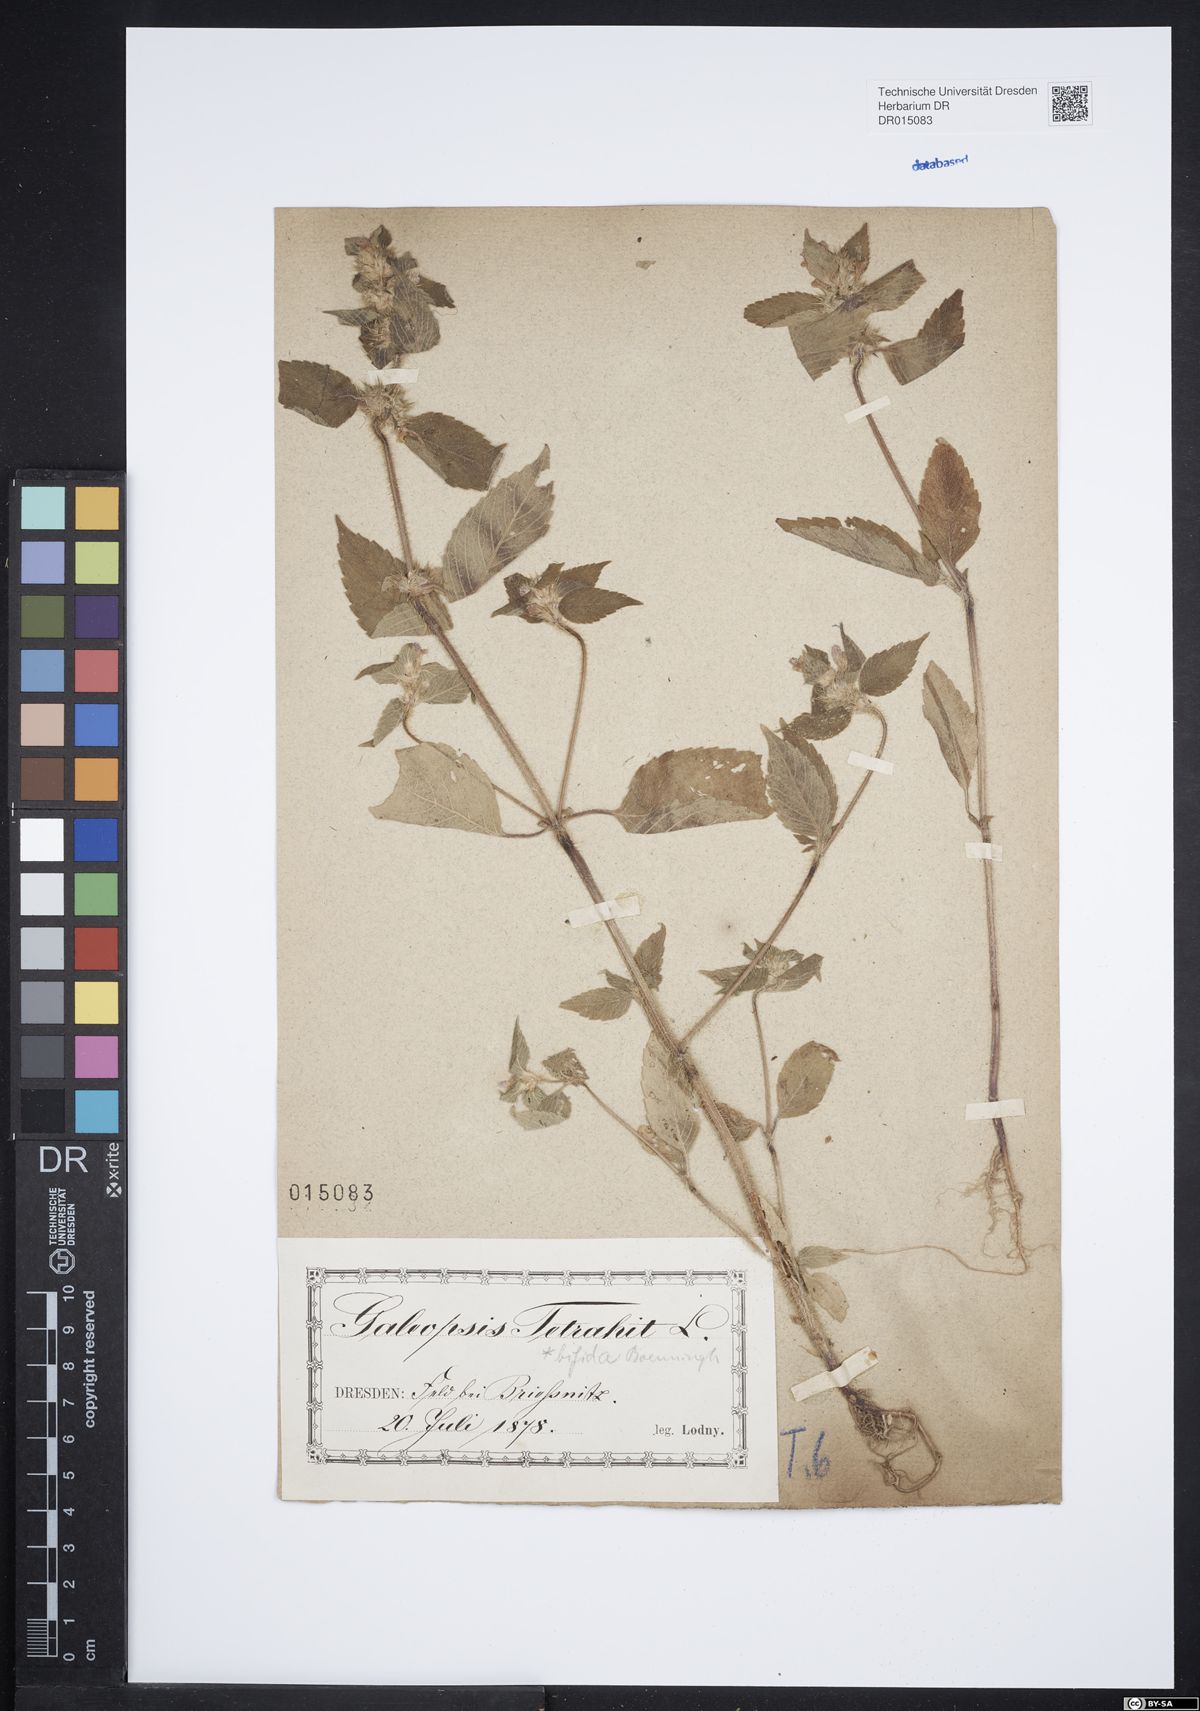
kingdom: Plantae
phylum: Tracheophyta
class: Magnoliopsida
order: Lamiales
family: Lamiaceae
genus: Galeopsis
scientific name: Galeopsis bifida
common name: Bifid hemp-nettle
